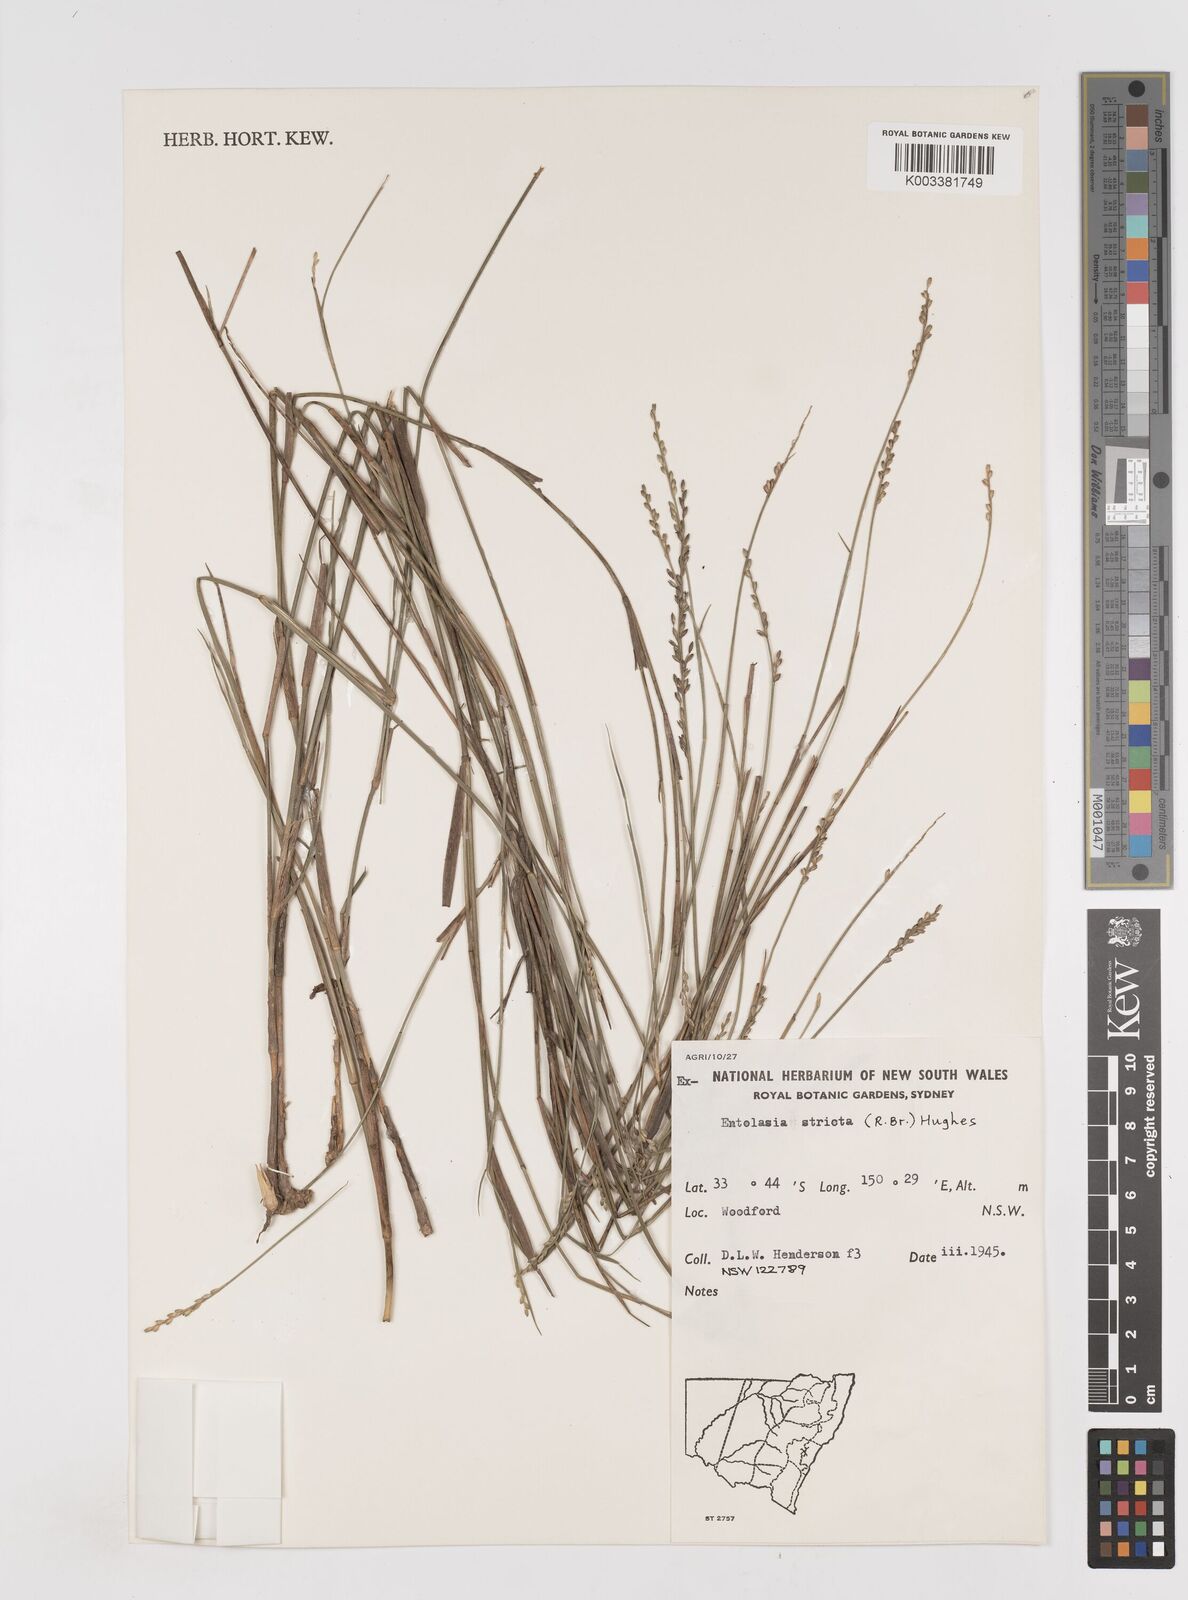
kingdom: Plantae
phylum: Tracheophyta
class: Liliopsida
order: Poales
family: Poaceae
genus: Entolasia
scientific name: Entolasia stricta
